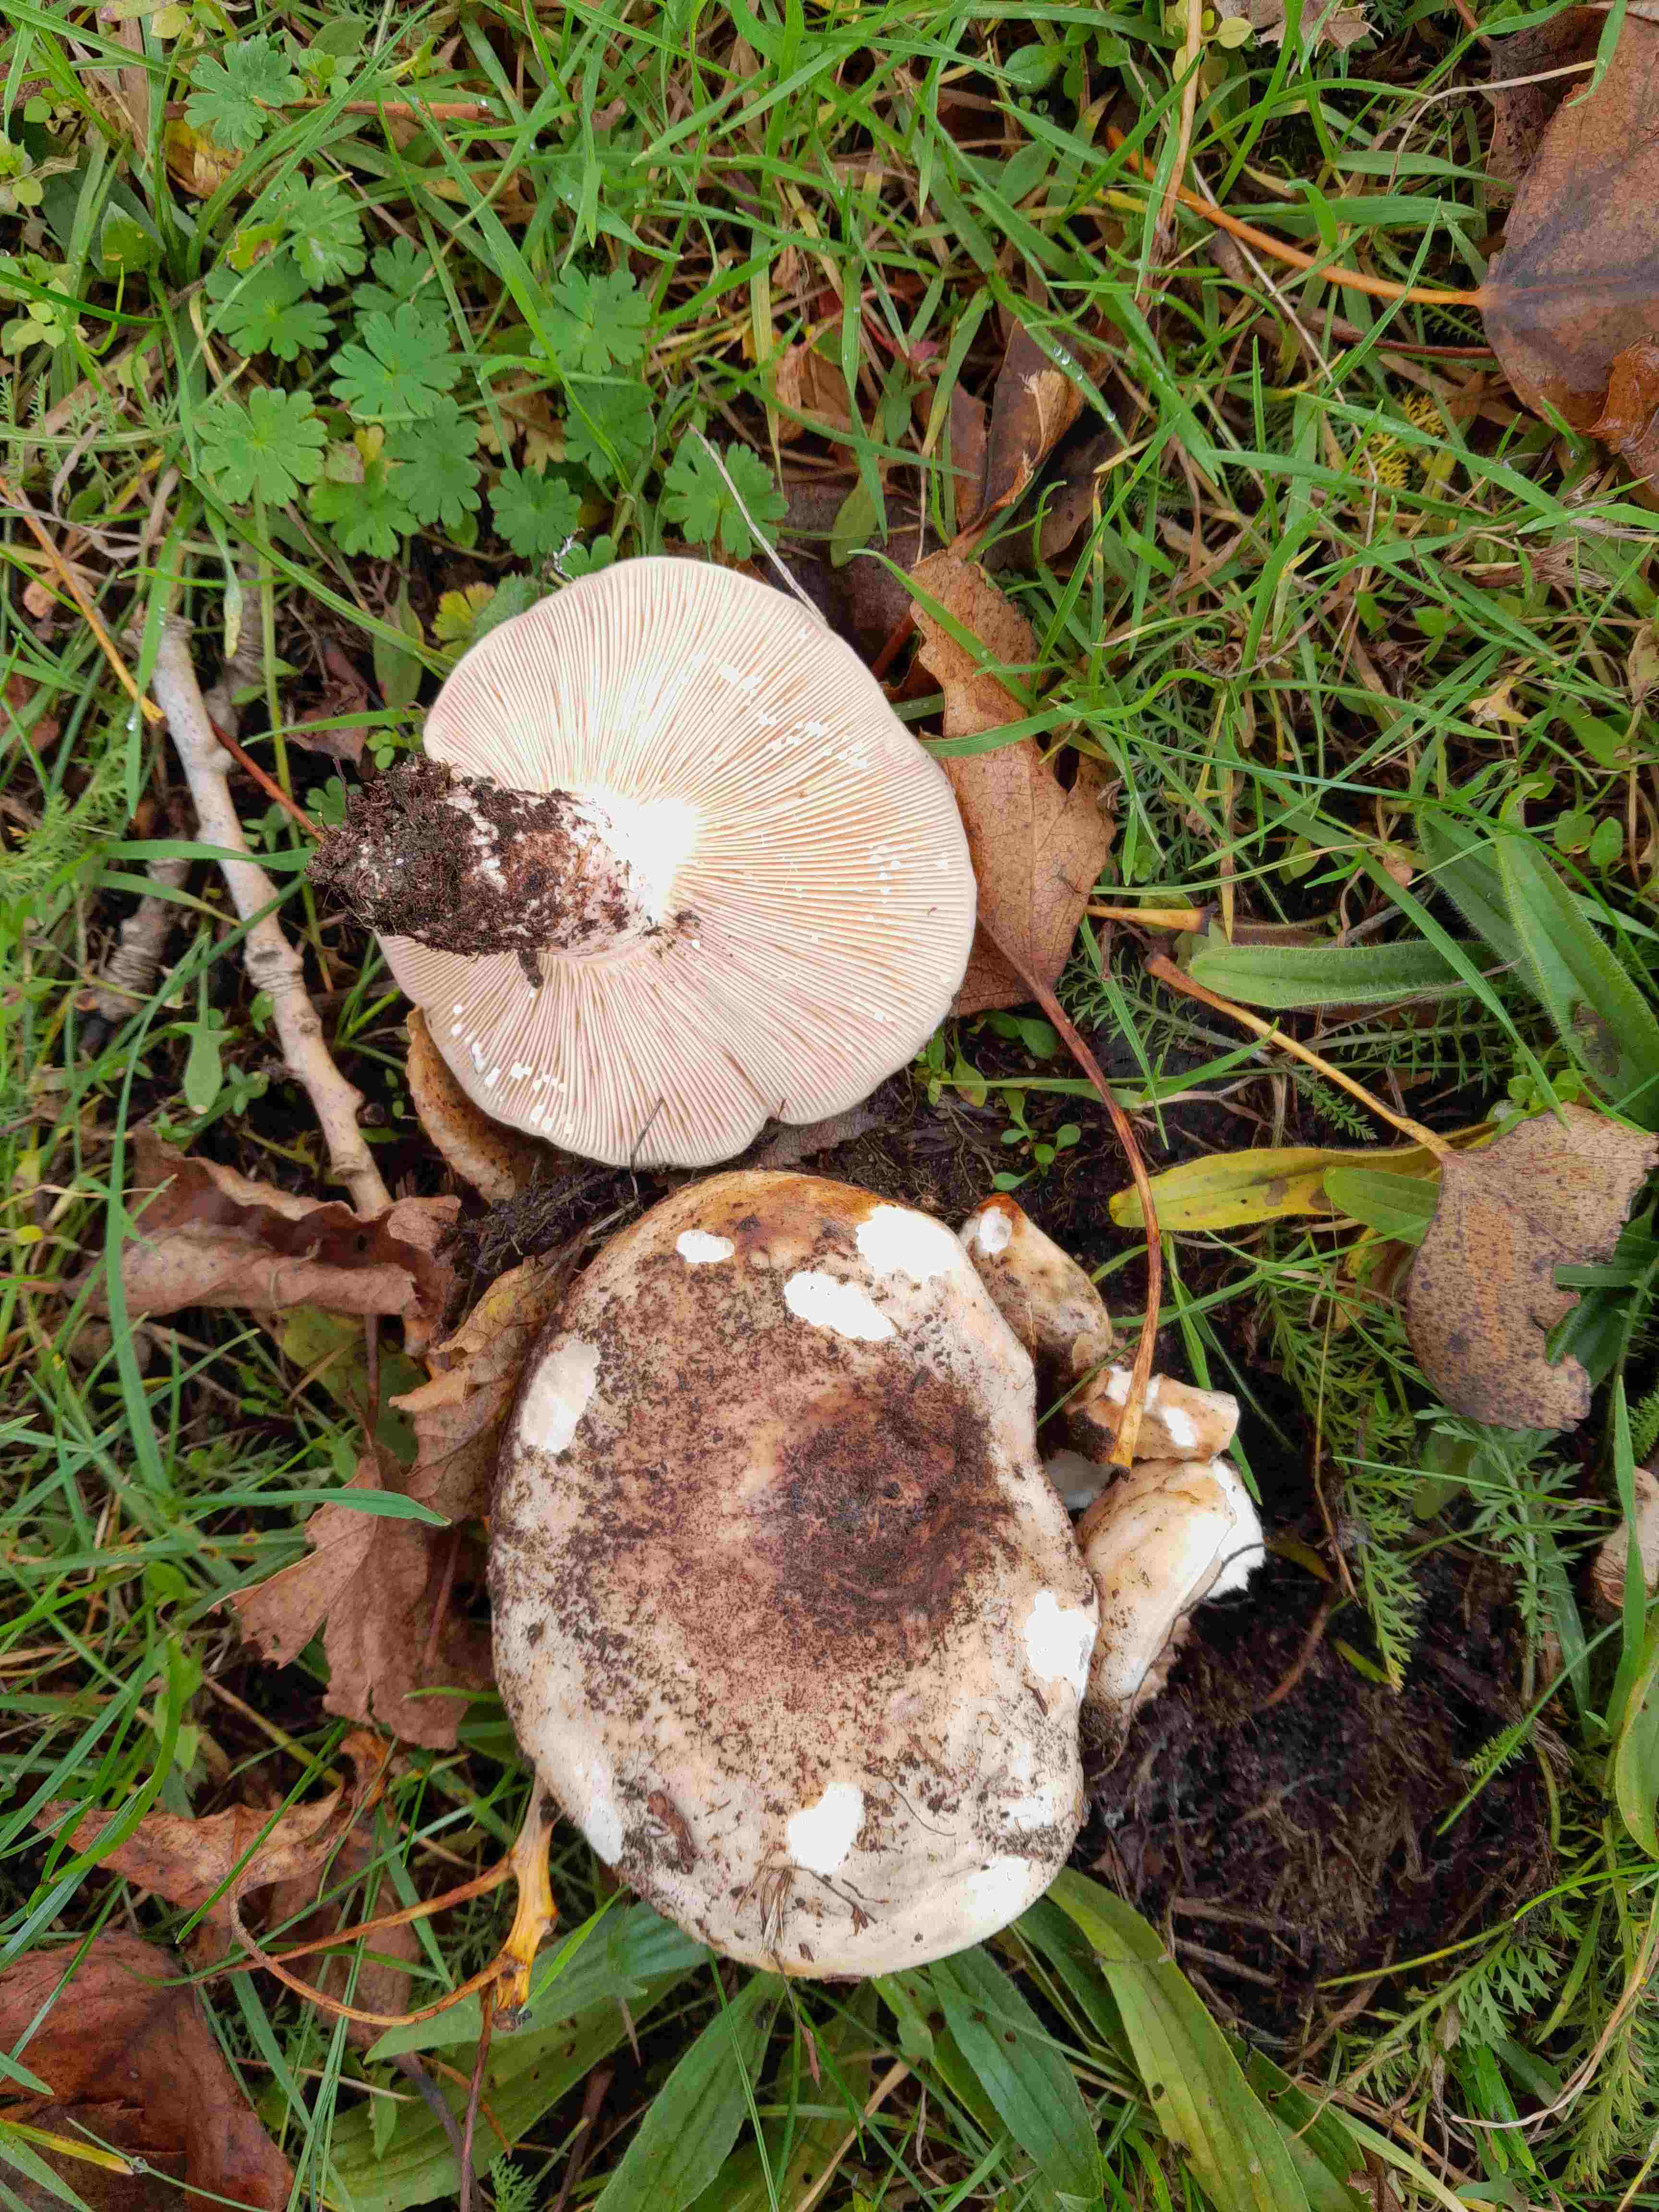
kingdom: Fungi
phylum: Basidiomycota
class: Agaricomycetes
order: Russulales
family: Russulaceae
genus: Lactarius
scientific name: Lactarius controversus
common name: rosabladet mælkehat
